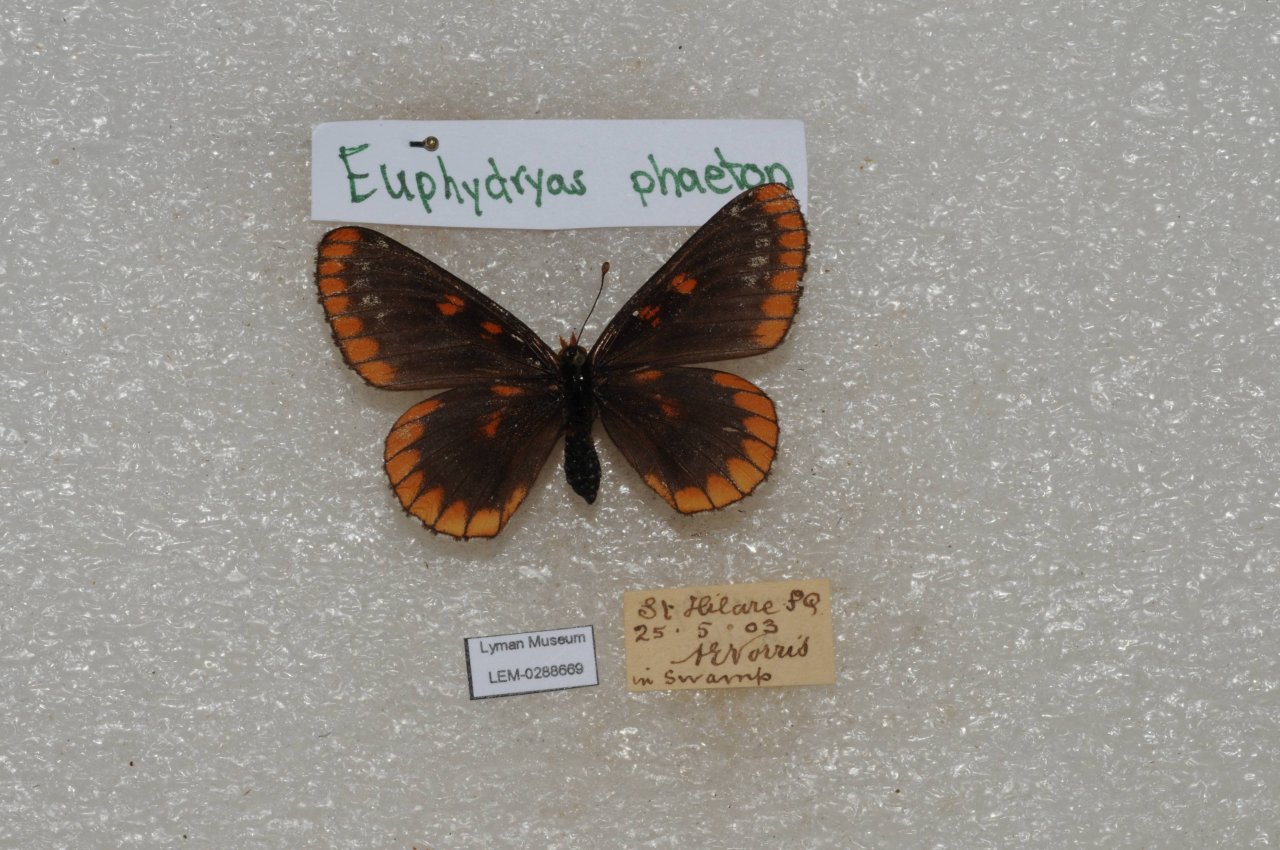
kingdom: Animalia
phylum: Arthropoda
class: Insecta
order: Lepidoptera
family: Nymphalidae
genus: Euphydryas
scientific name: Euphydryas phaeton
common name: Baltimore Checkerspot
